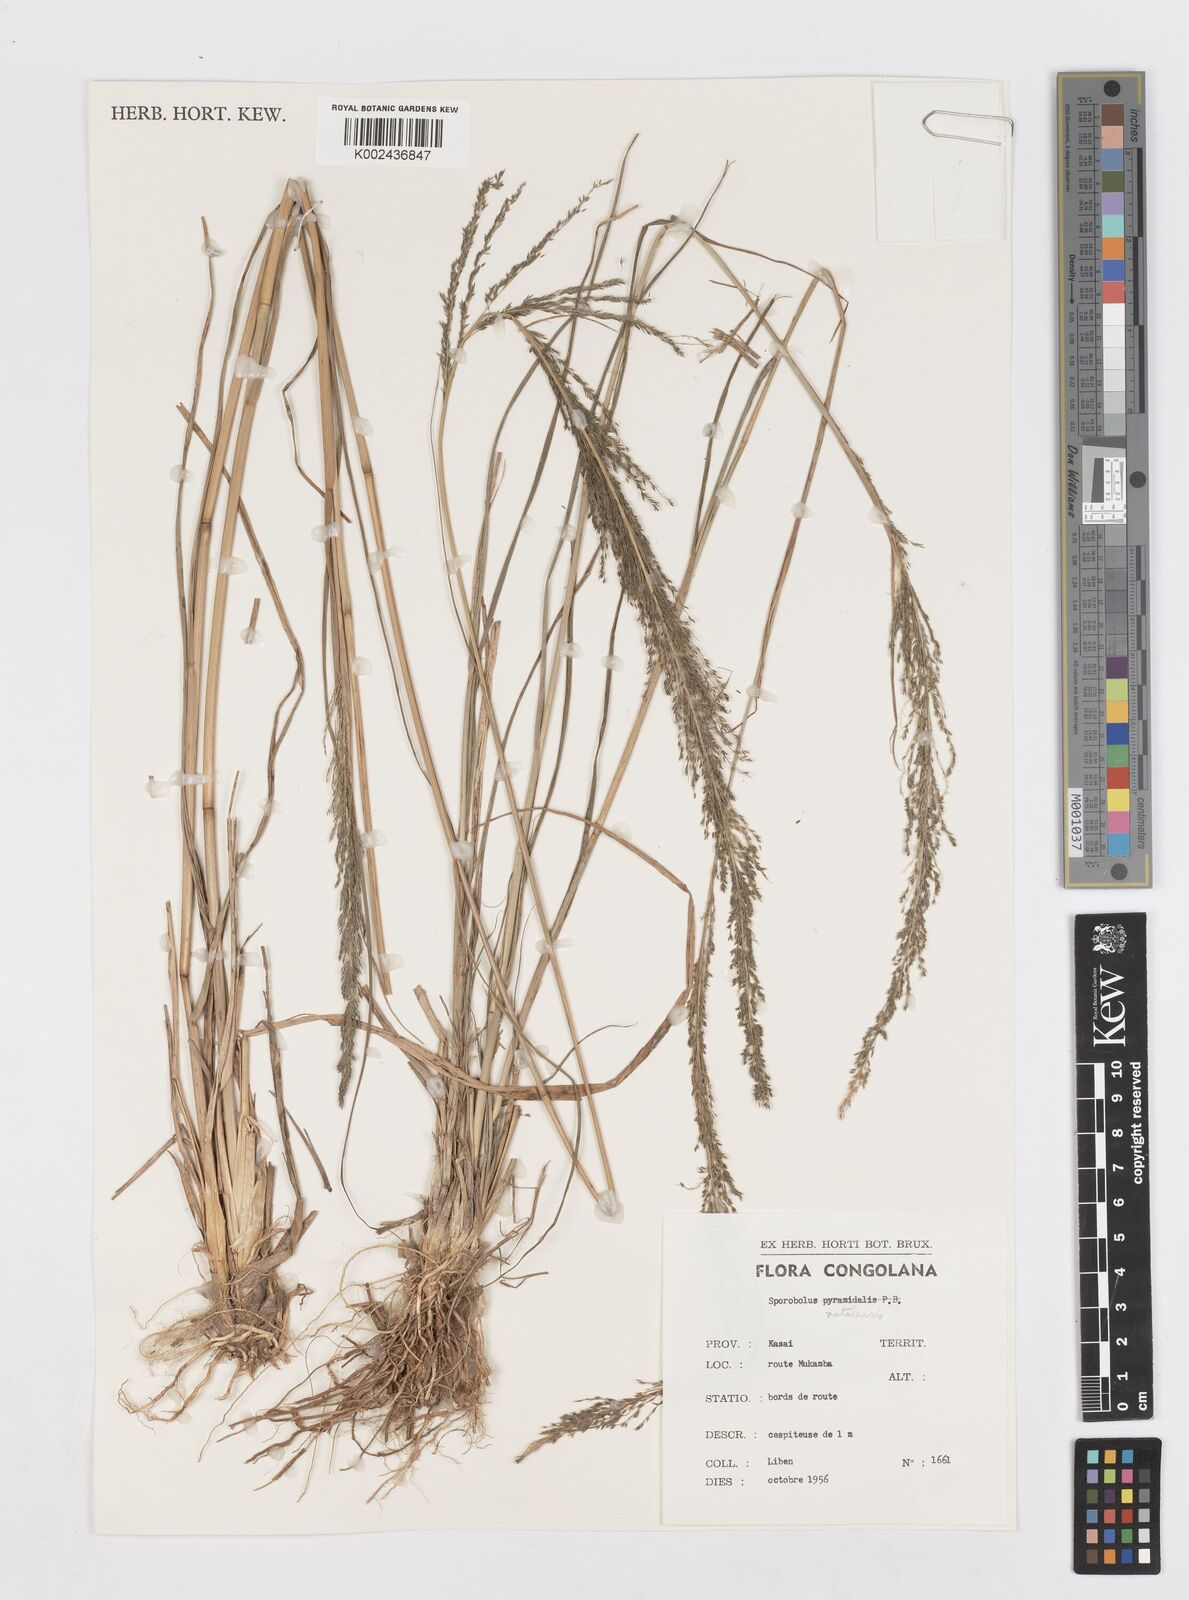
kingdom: Plantae
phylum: Tracheophyta
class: Liliopsida
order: Poales
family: Poaceae
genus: Sporobolus
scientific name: Sporobolus natalensis
